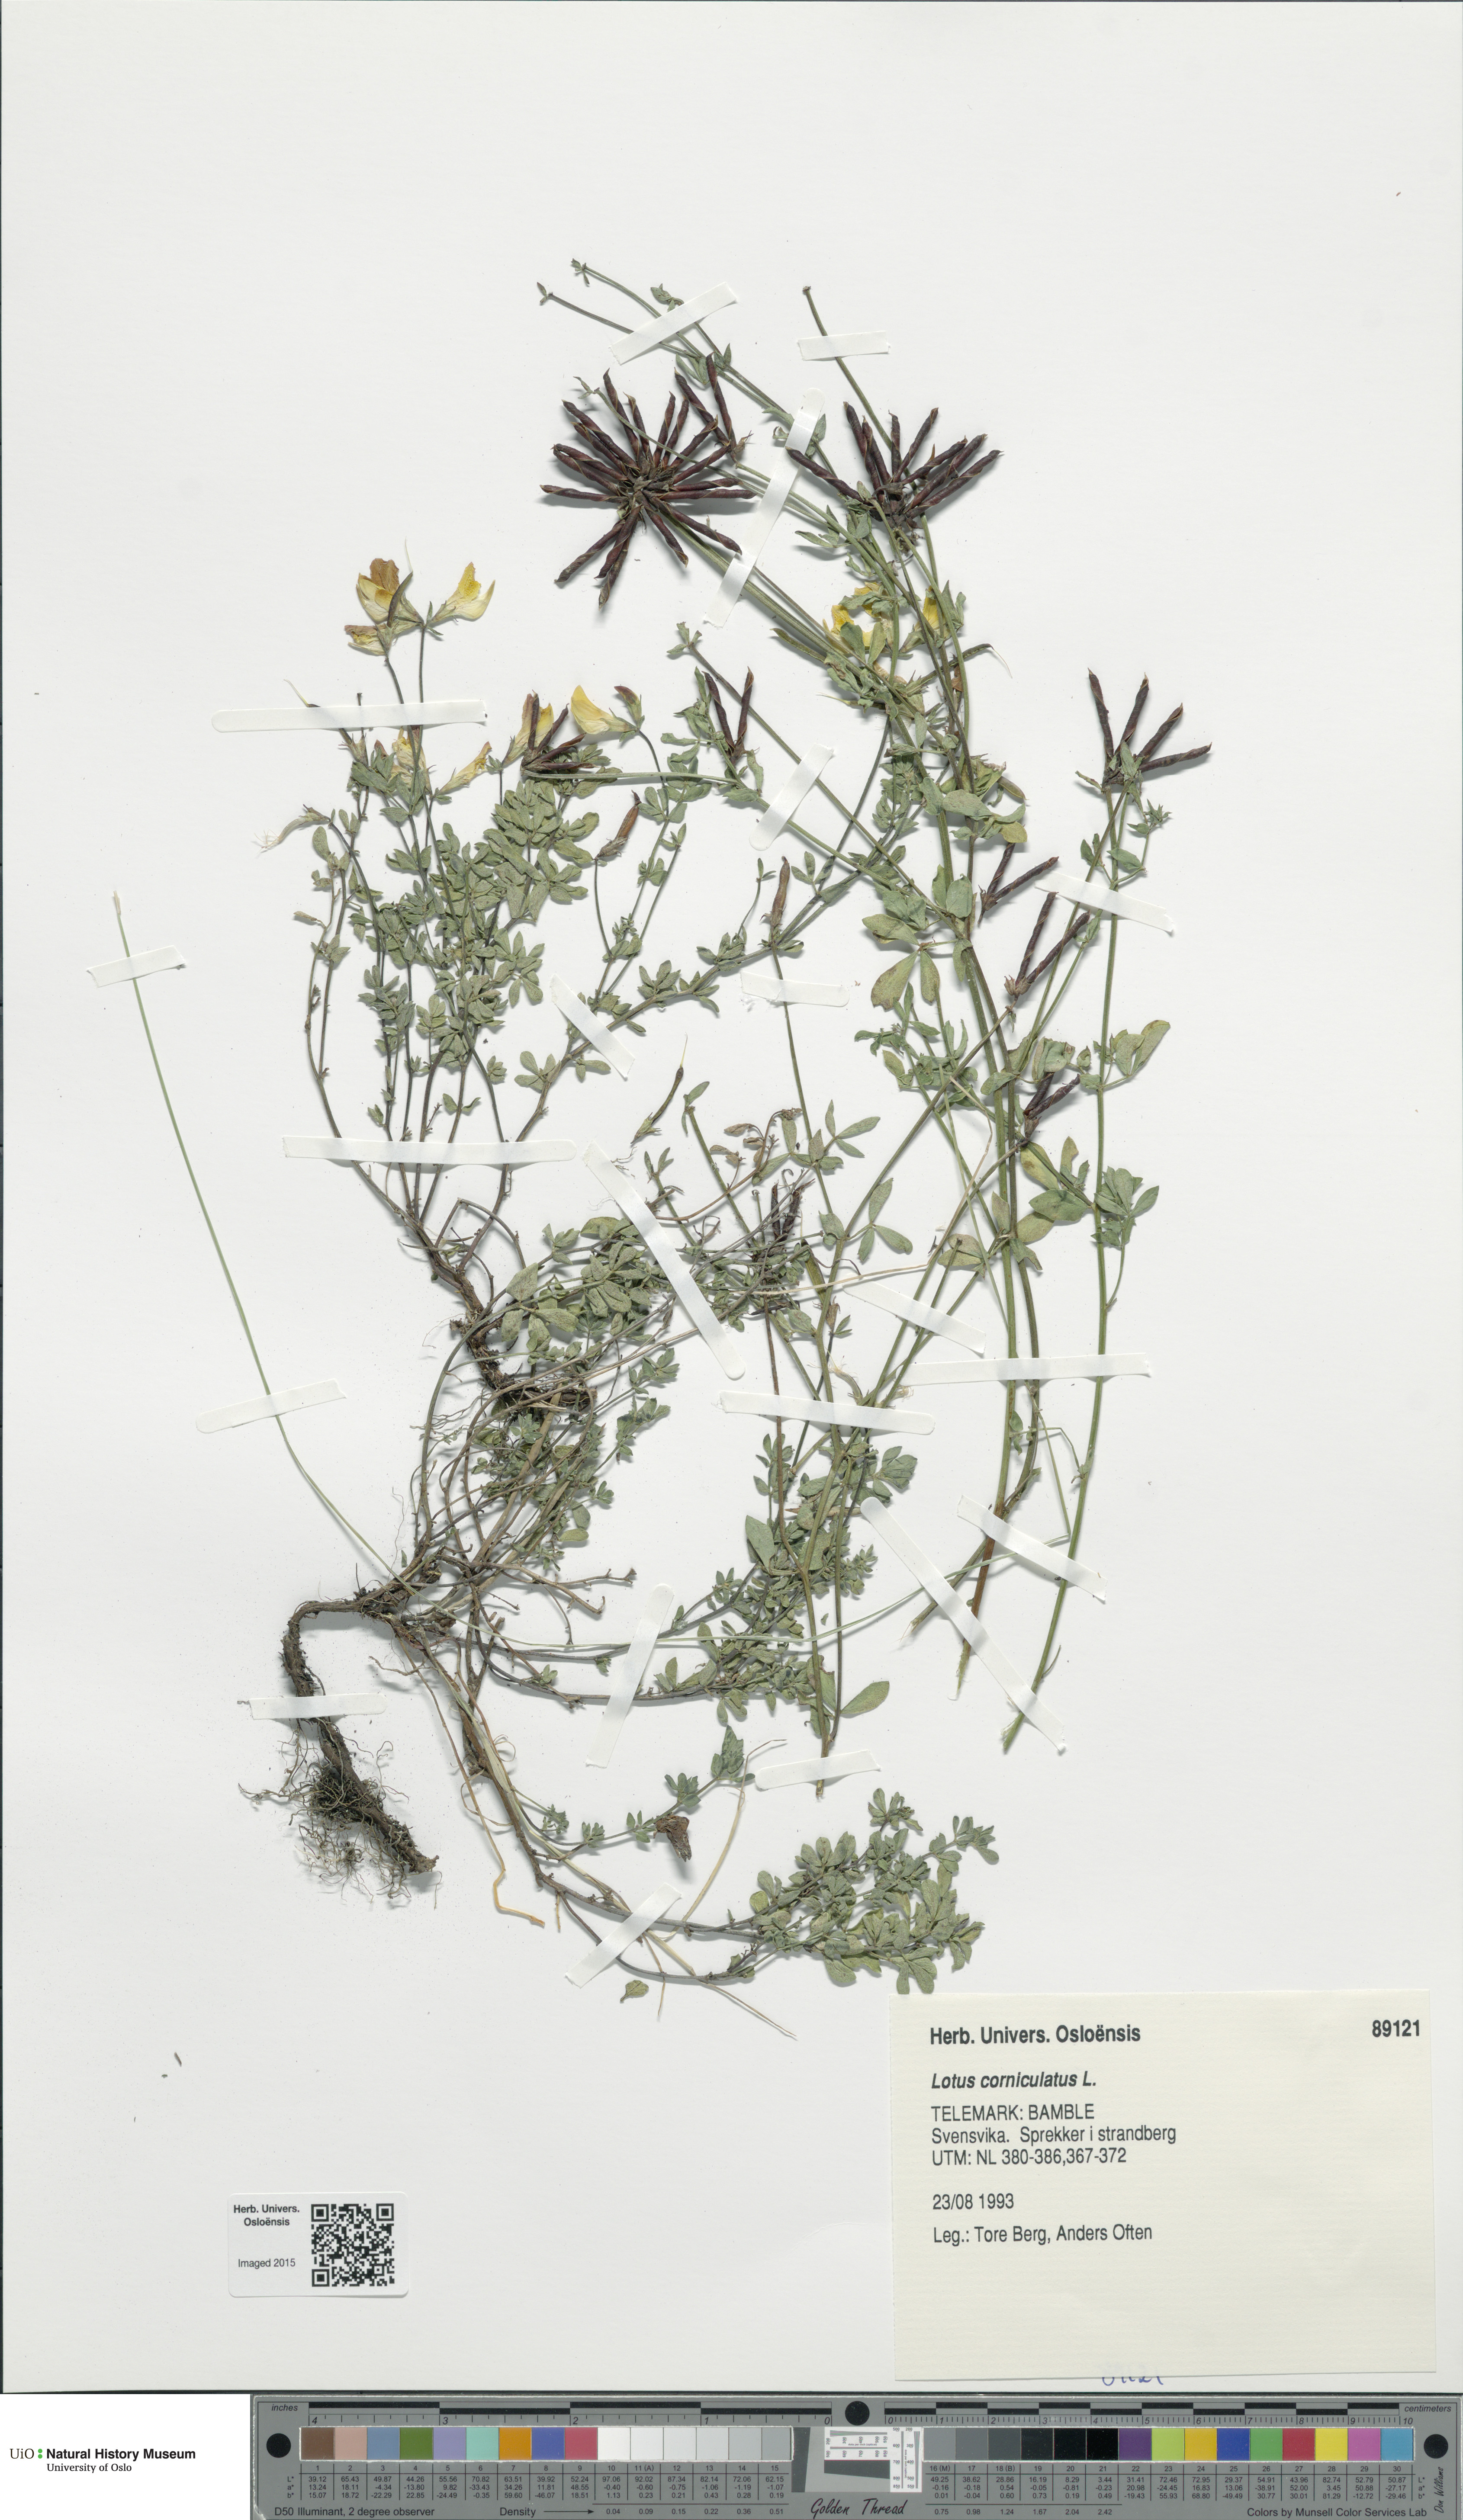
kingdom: Plantae
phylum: Tracheophyta
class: Magnoliopsida
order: Fabales
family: Fabaceae
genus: Lotus
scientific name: Lotus corniculatus
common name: Common bird's-foot-trefoil
